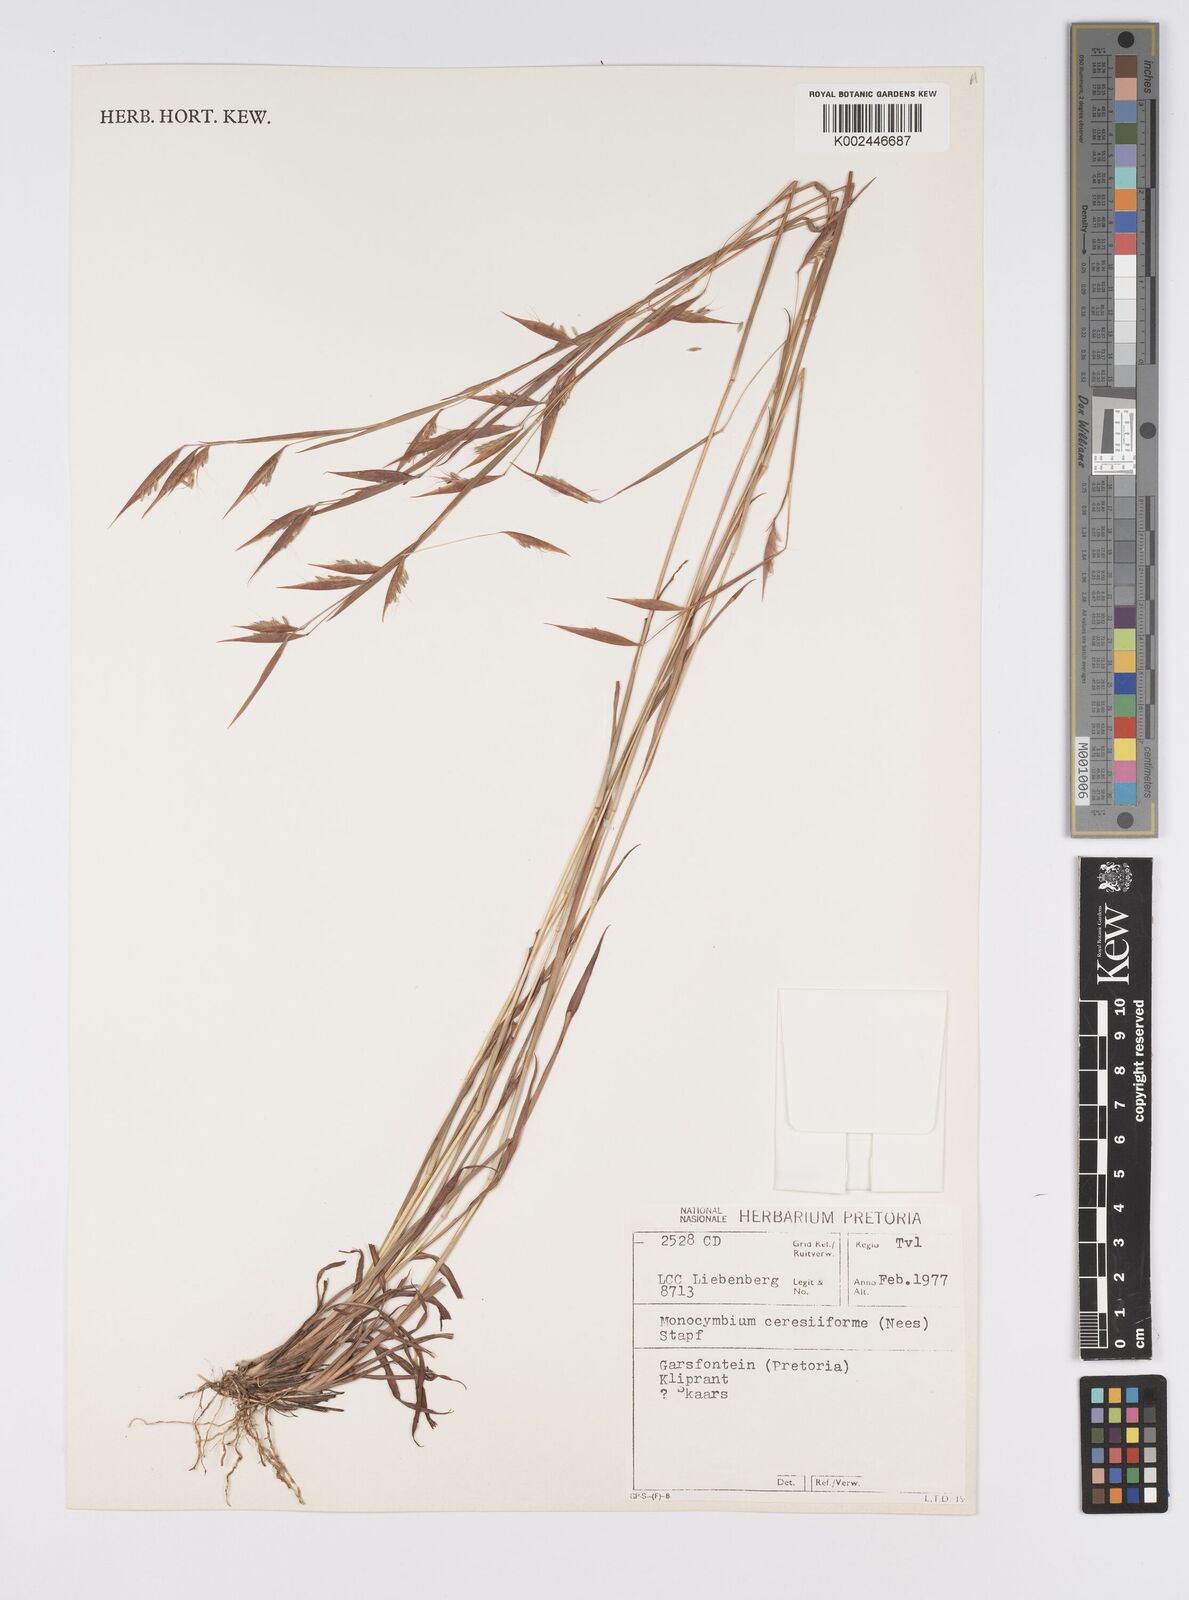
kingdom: Plantae
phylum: Tracheophyta
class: Liliopsida
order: Poales
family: Poaceae
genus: Monocymbium
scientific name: Monocymbium ceresiiforme
